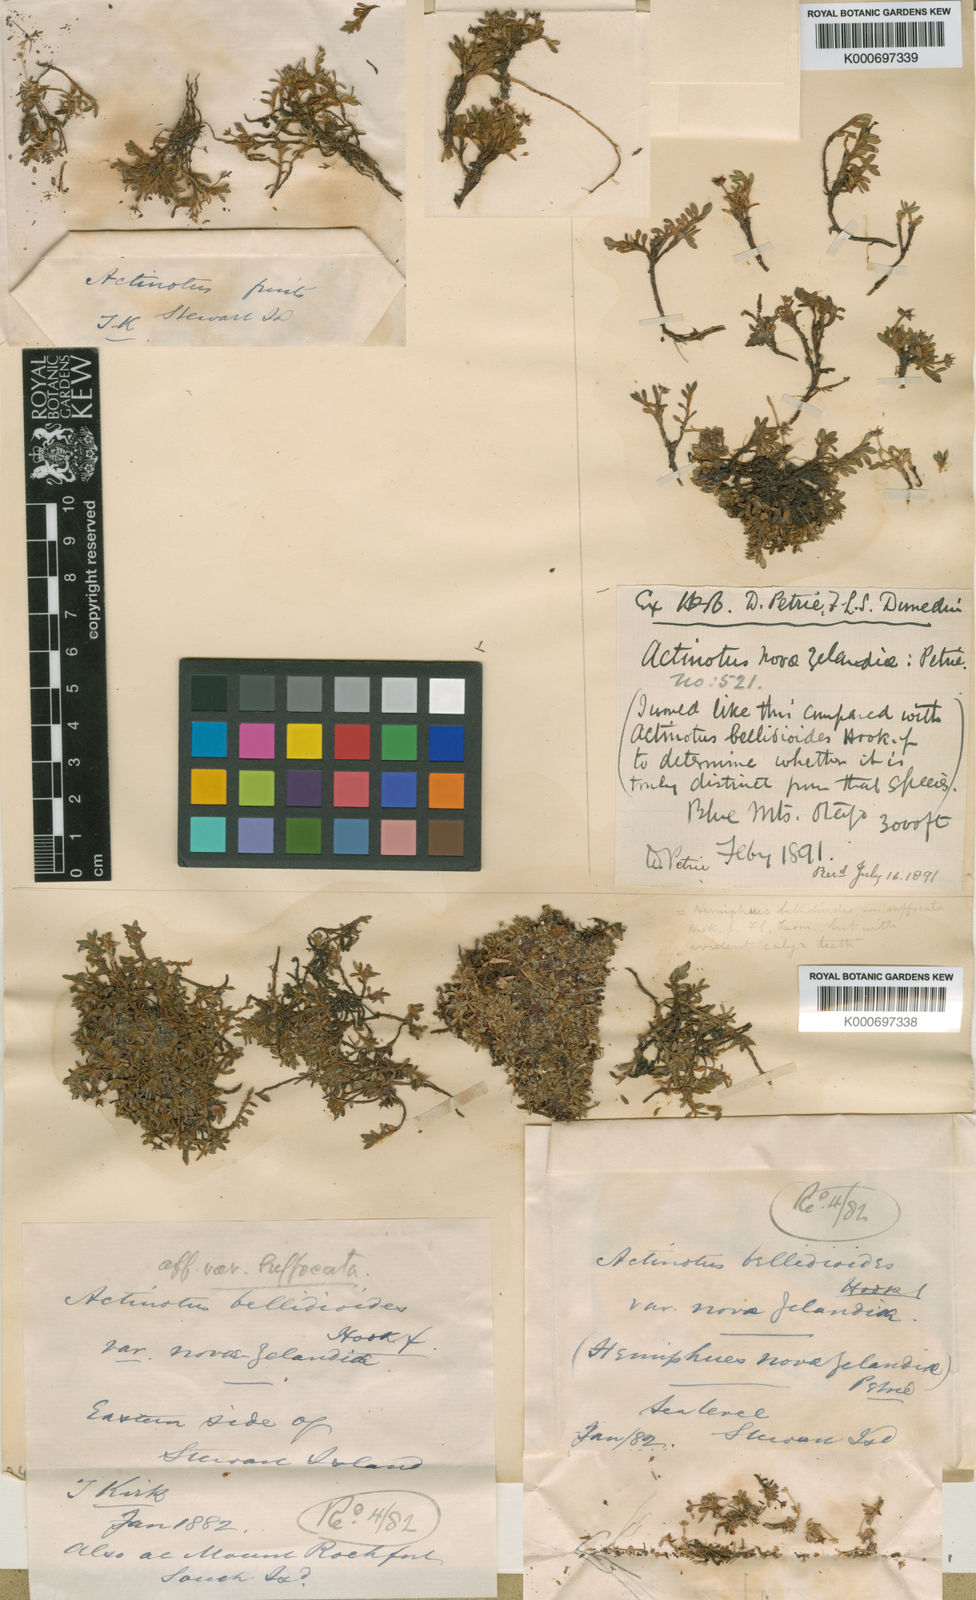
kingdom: Plantae
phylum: Tracheophyta
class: Magnoliopsida
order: Apiales
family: Apiaceae
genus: Actinotus
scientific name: Actinotus bellidioides
